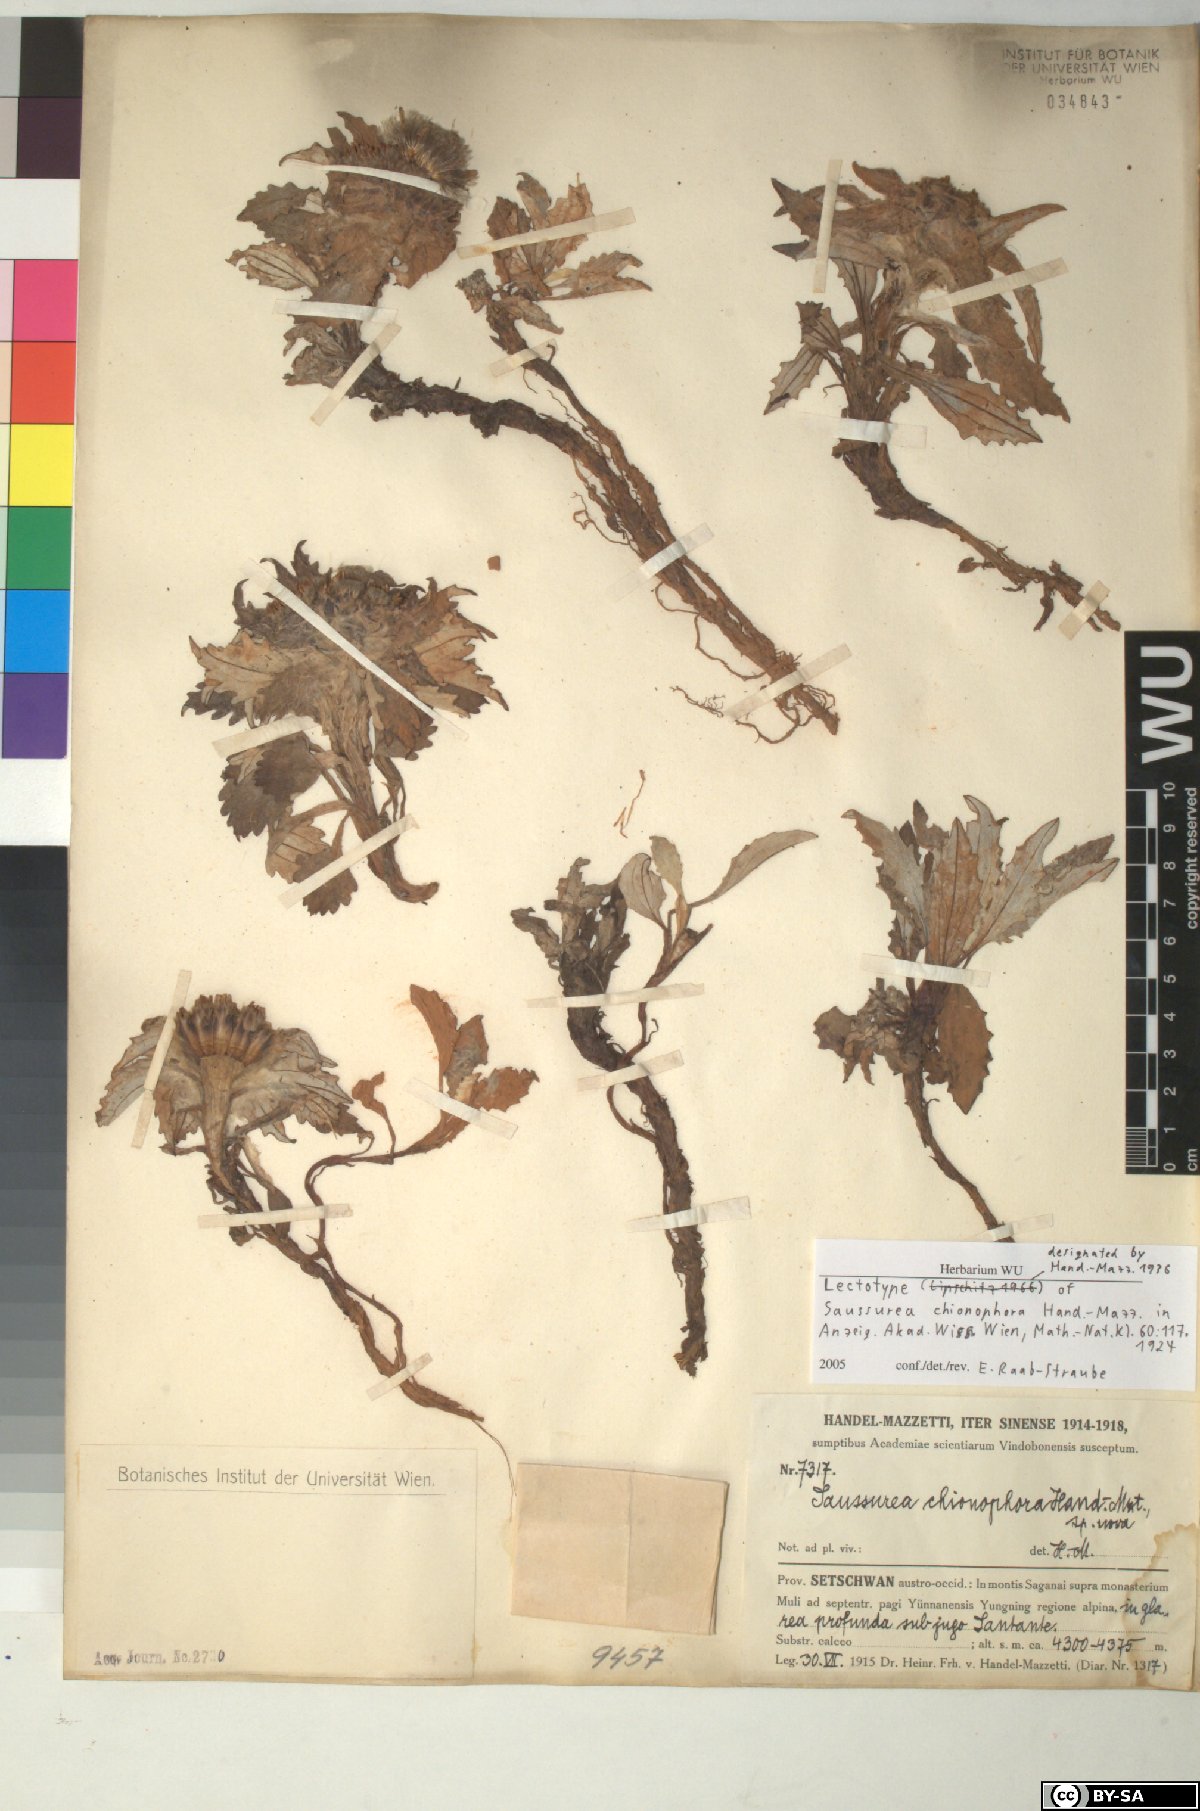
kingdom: Plantae
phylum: Tracheophyta
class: Magnoliopsida
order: Asterales
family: Asteraceae
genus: Saussurea
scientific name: Saussurea quercifolia
